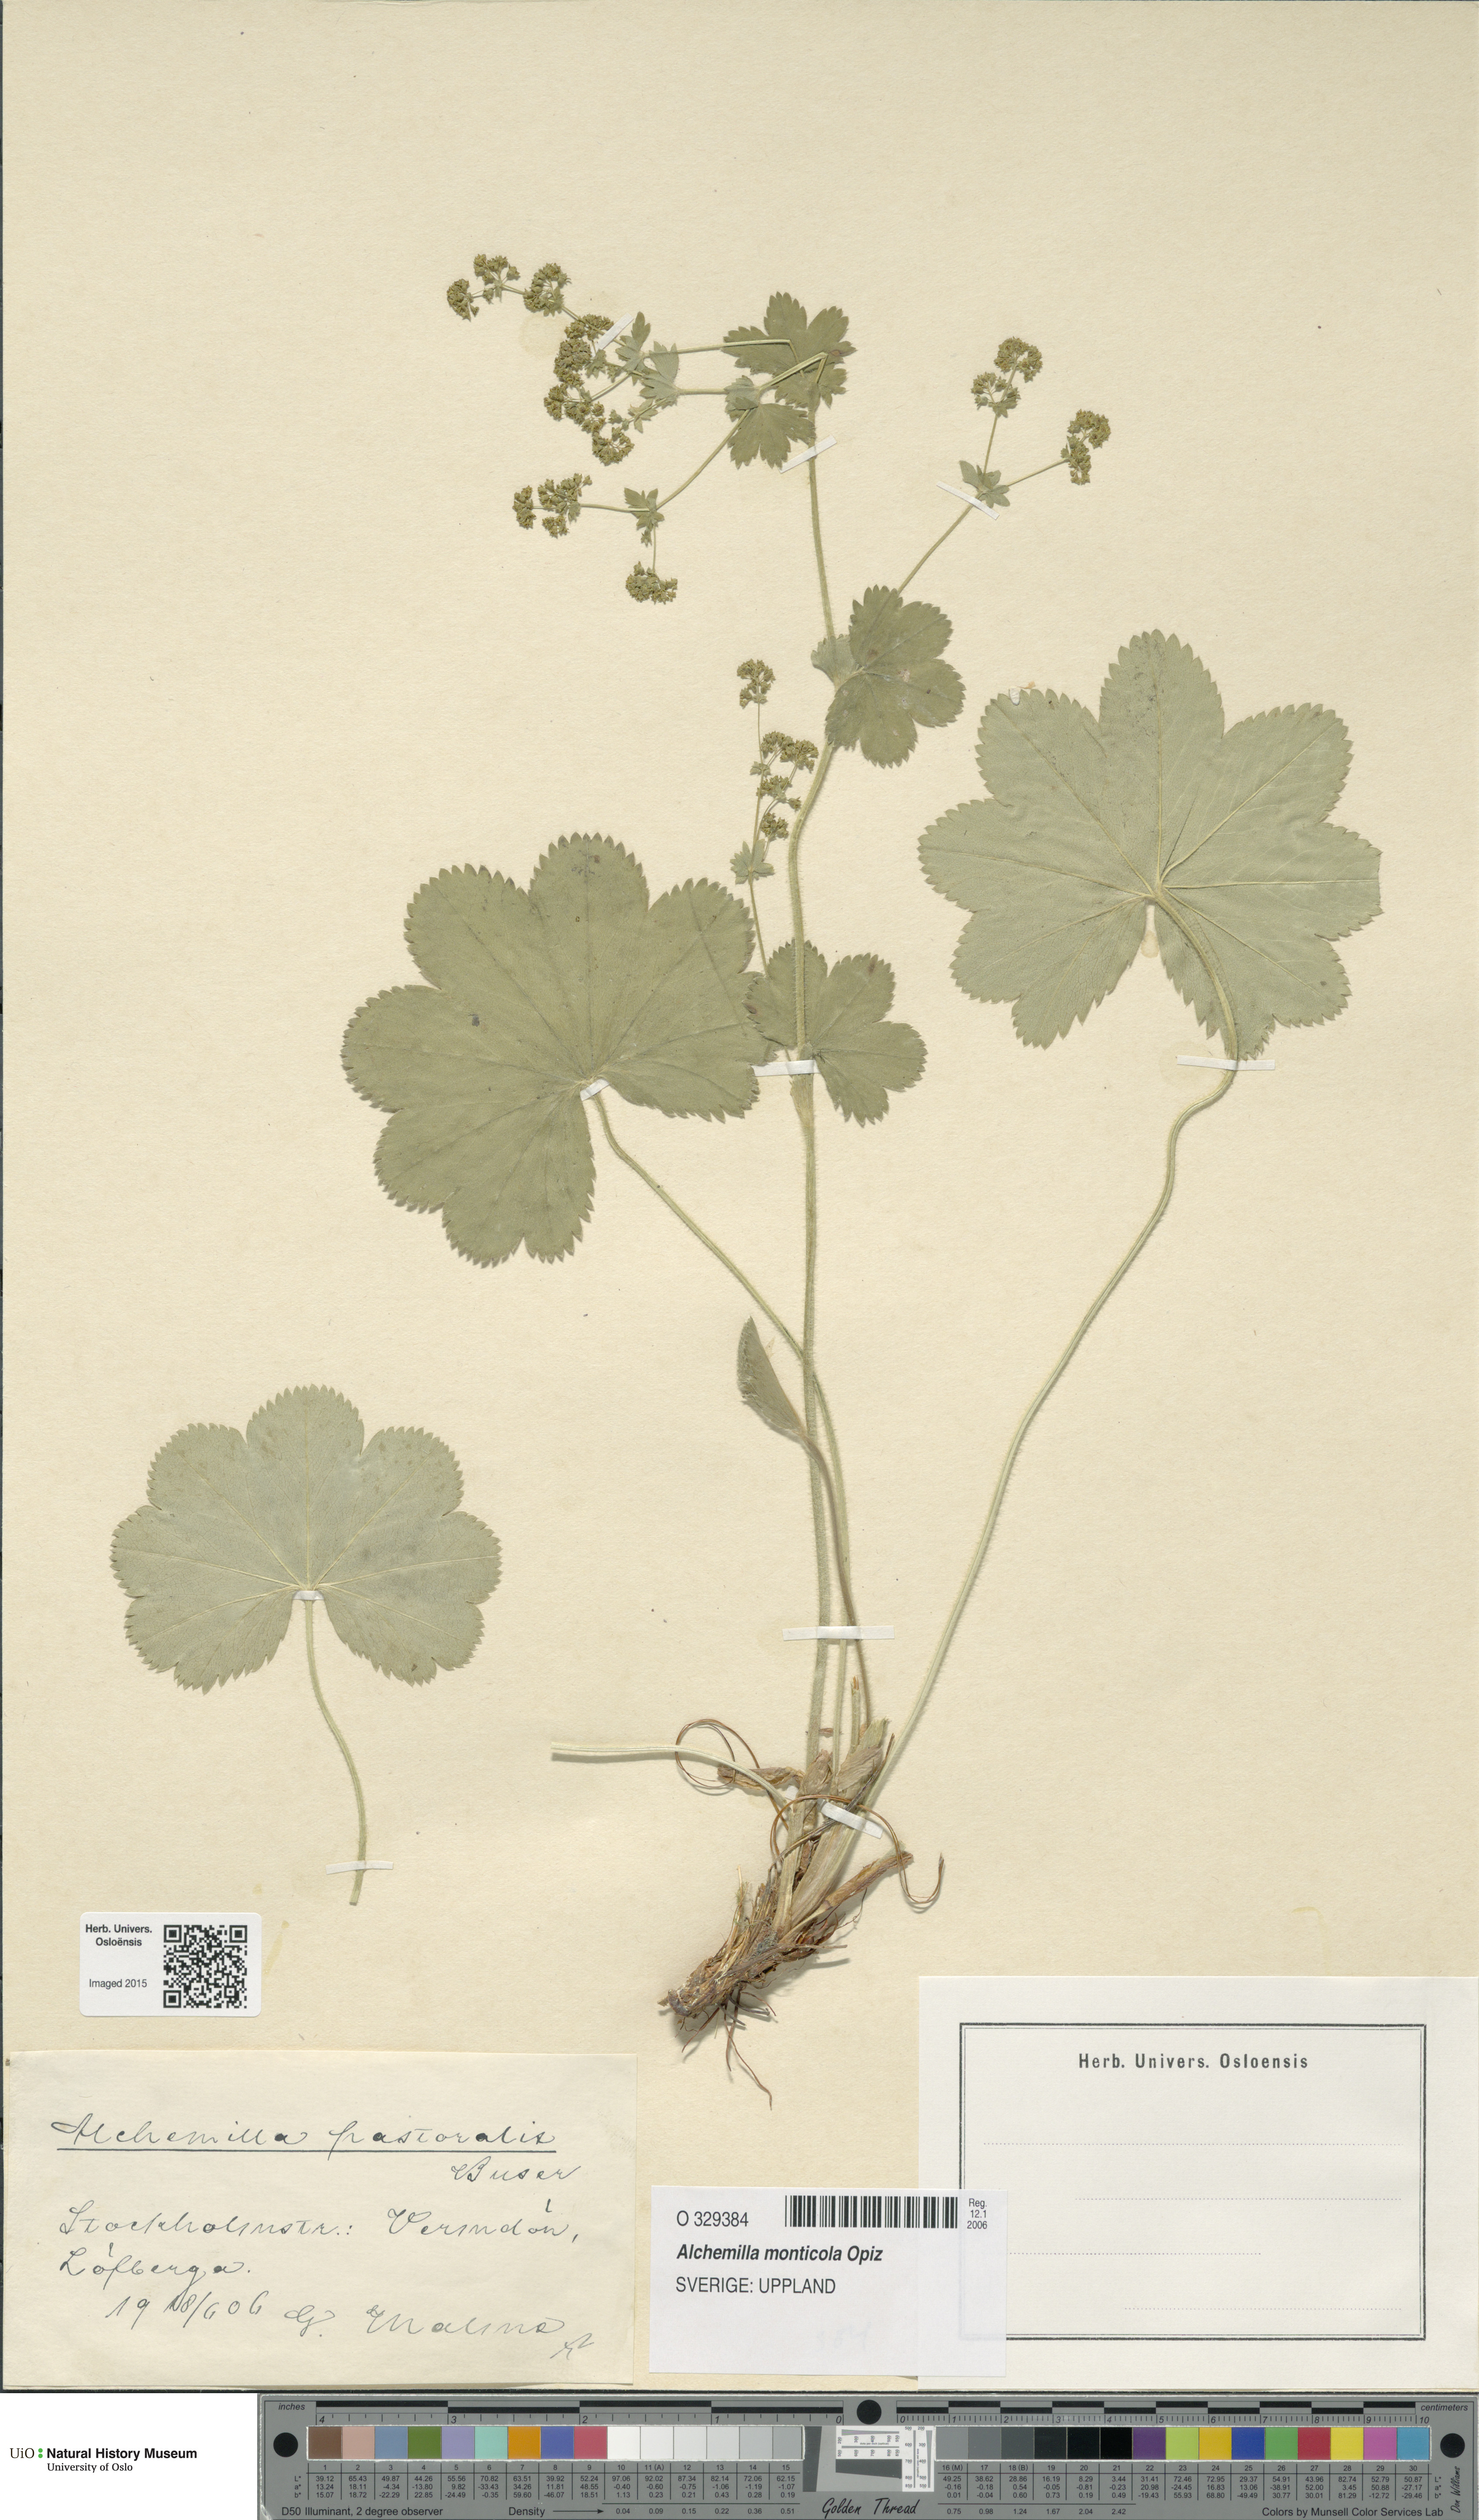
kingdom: Plantae
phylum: Tracheophyta
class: Magnoliopsida
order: Rosales
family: Rosaceae
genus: Alchemilla
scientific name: Alchemilla monticola
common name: Hairy lady's mantle
